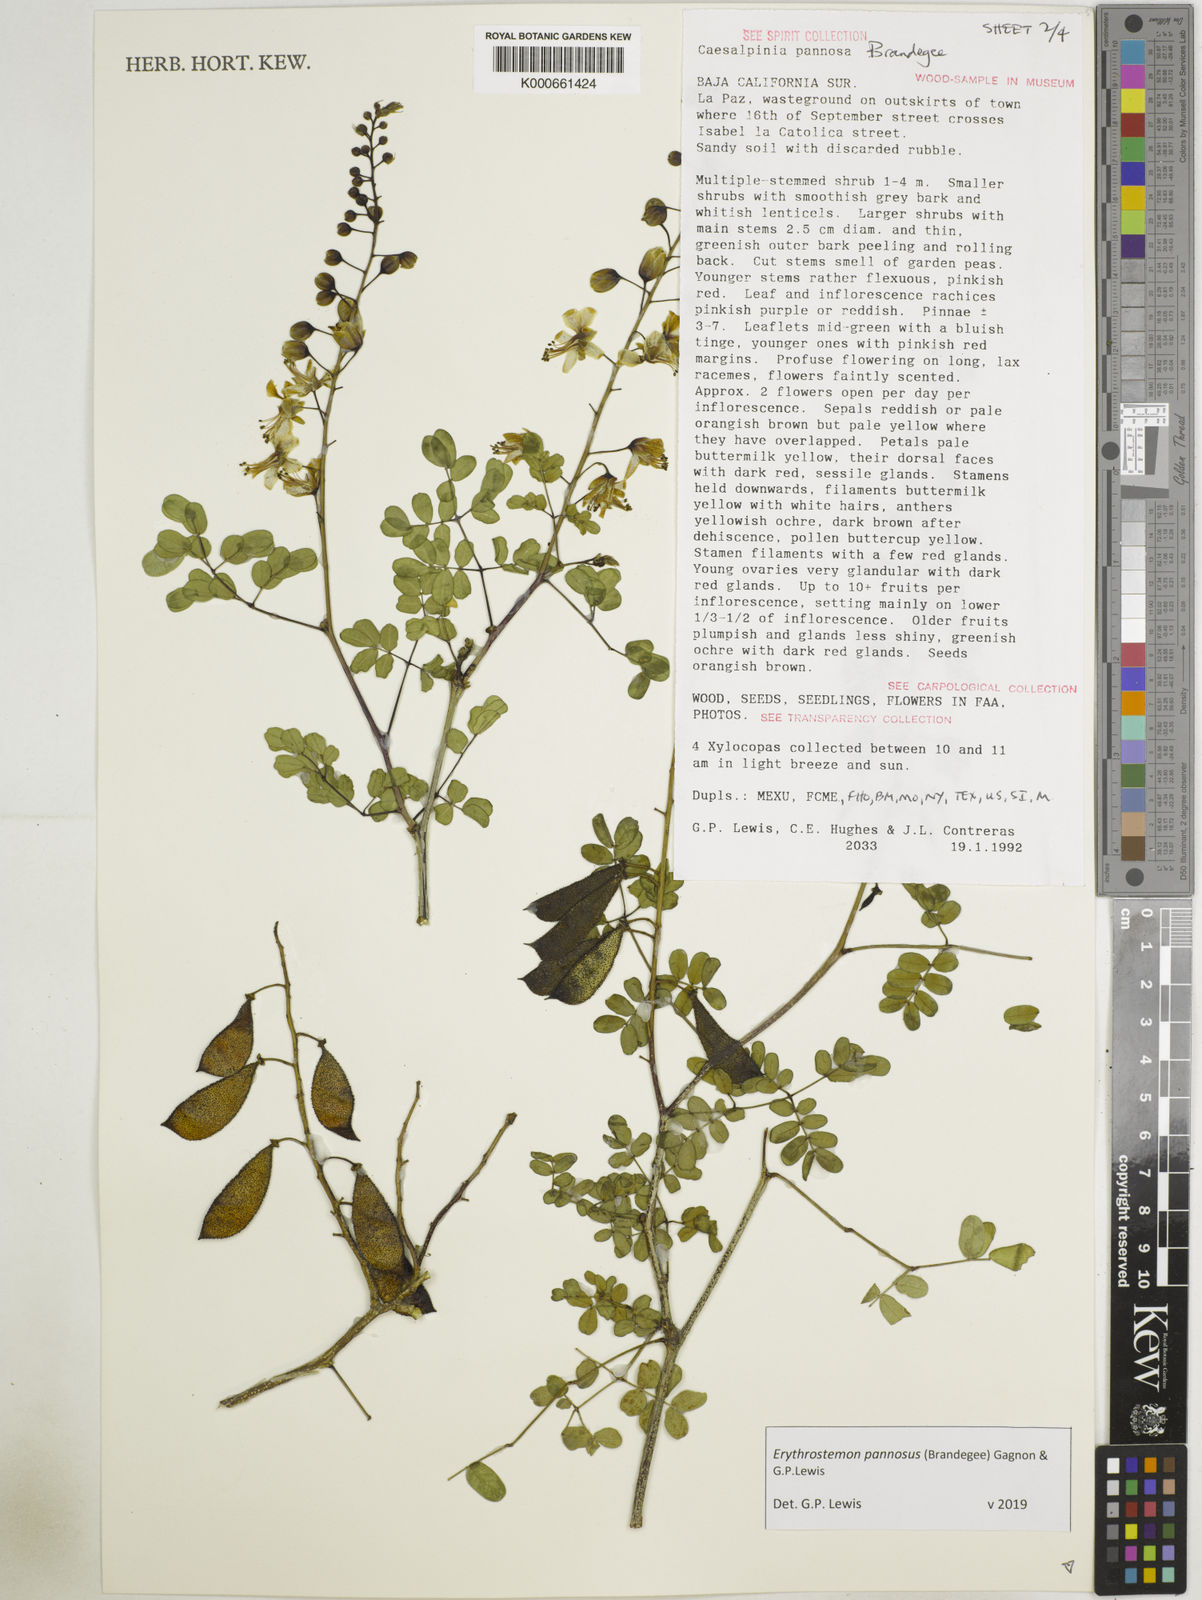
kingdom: Plantae
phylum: Tracheophyta
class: Magnoliopsida
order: Fabales
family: Fabaceae
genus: Erythrostemon
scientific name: Erythrostemon pannosus
